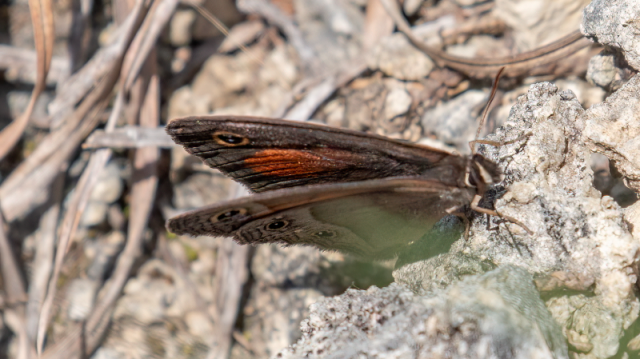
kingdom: Animalia
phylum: Arthropoda
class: Insecta
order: Lepidoptera
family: Nymphalidae
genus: Euptychia
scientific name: Euptychia rubricata
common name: Red Satyr
